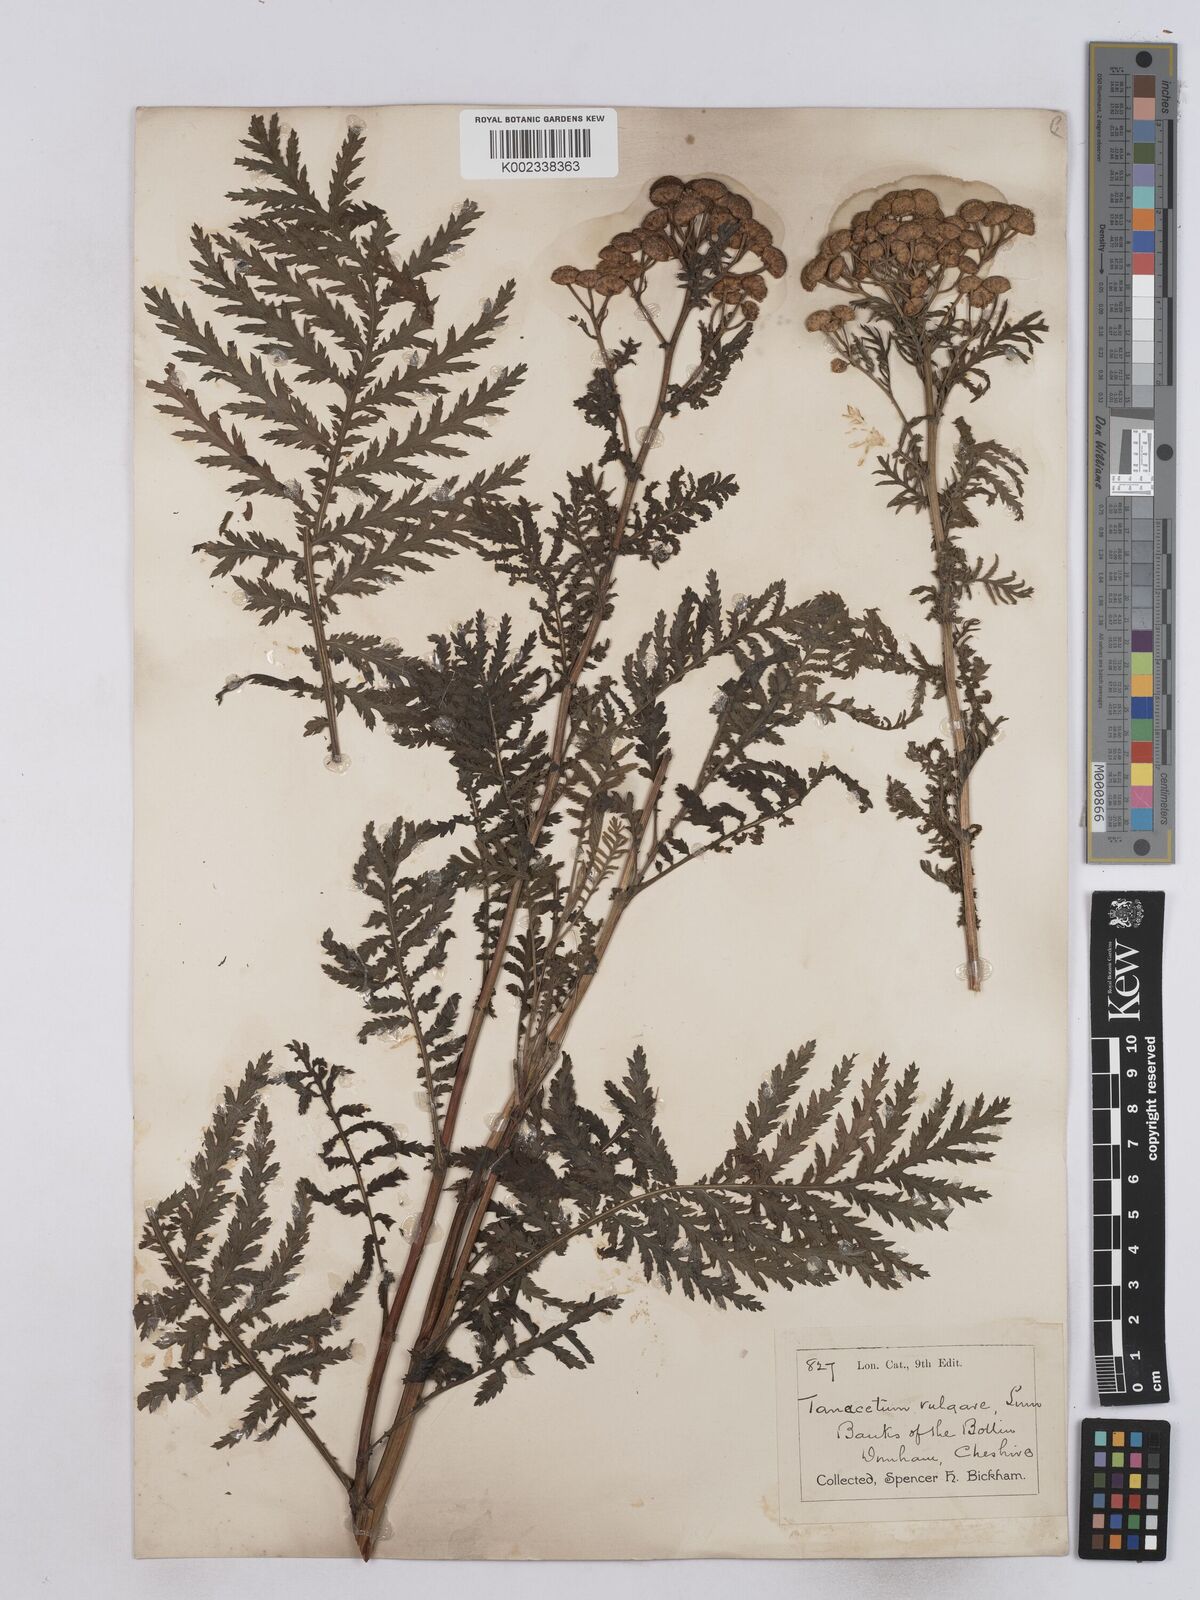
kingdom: Plantae
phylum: Tracheophyta
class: Magnoliopsida
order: Asterales
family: Asteraceae
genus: Tanacetum
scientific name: Tanacetum vulgare
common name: Common tansy
